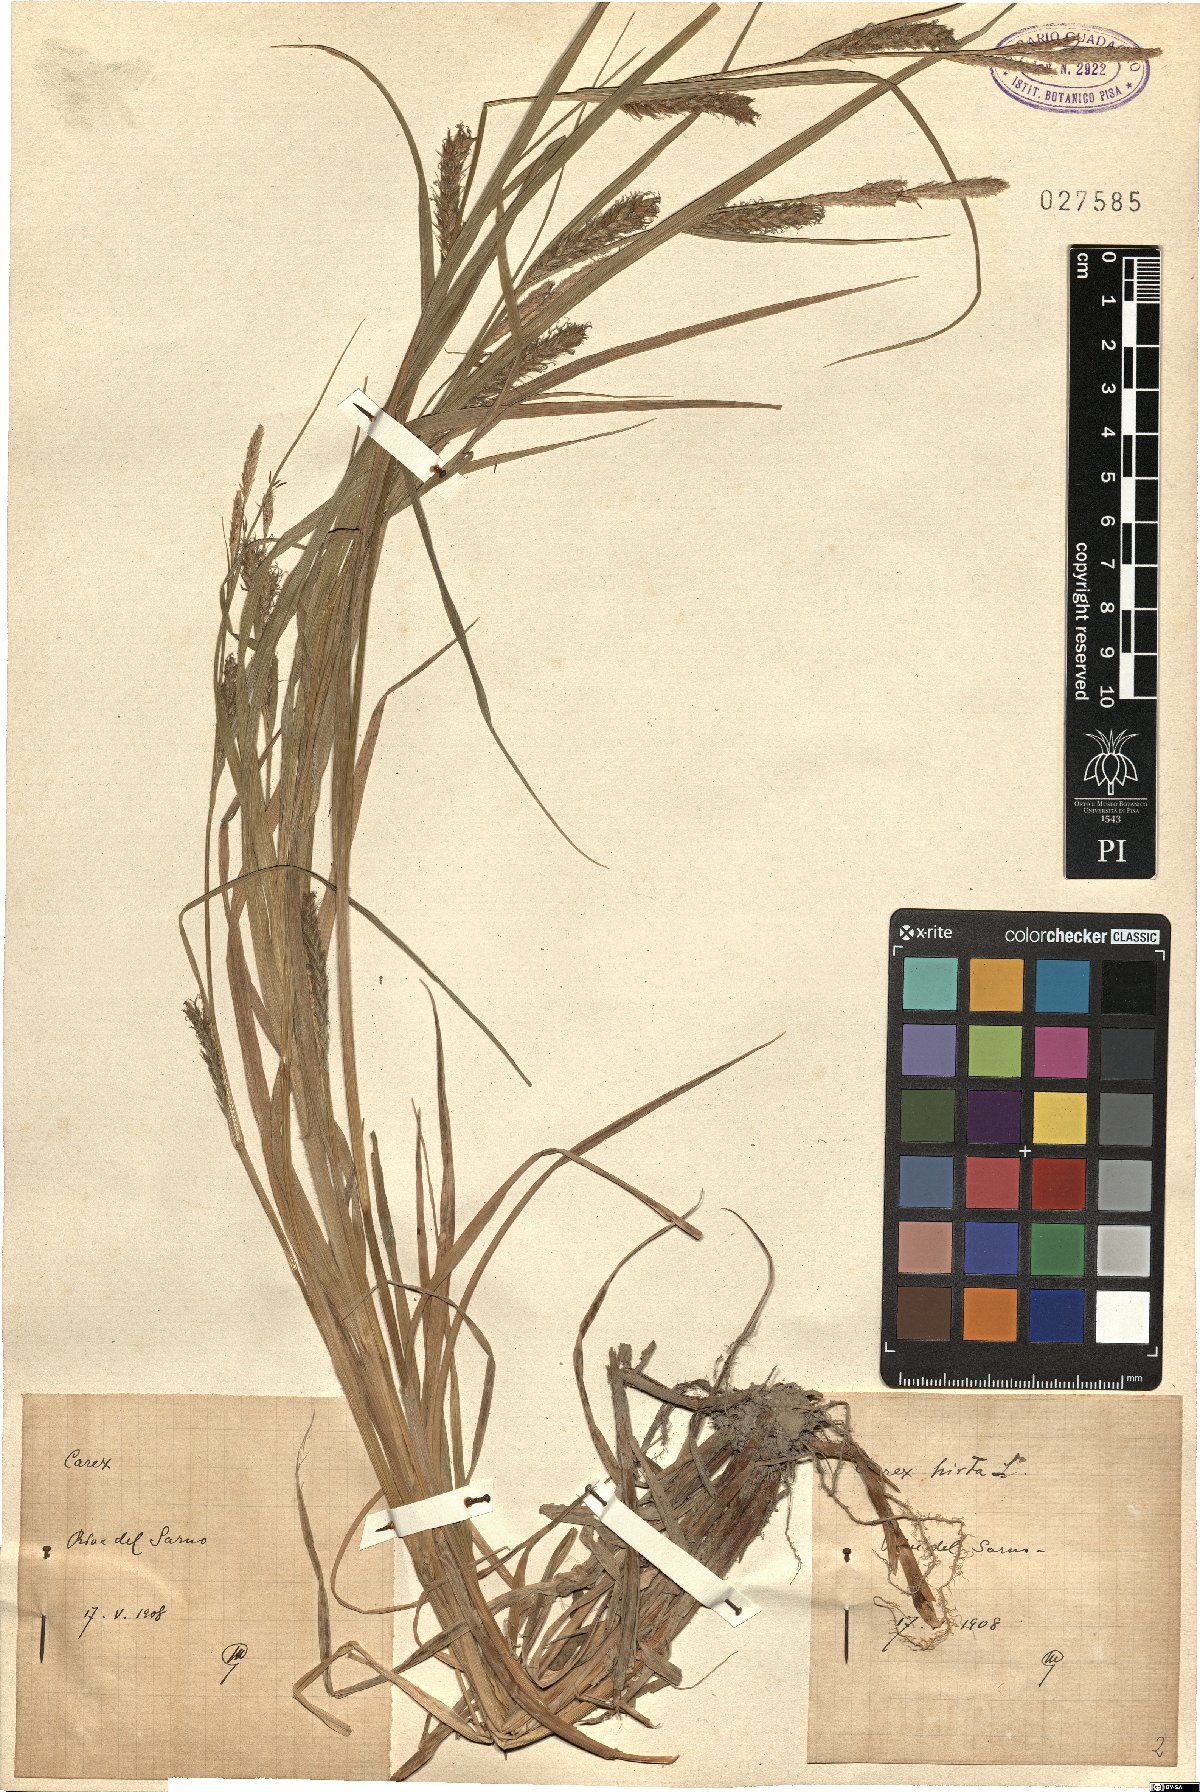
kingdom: Plantae
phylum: Tracheophyta
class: Liliopsida
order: Poales
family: Cyperaceae
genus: Carex
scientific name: Carex hirta
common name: Hairy sedge
